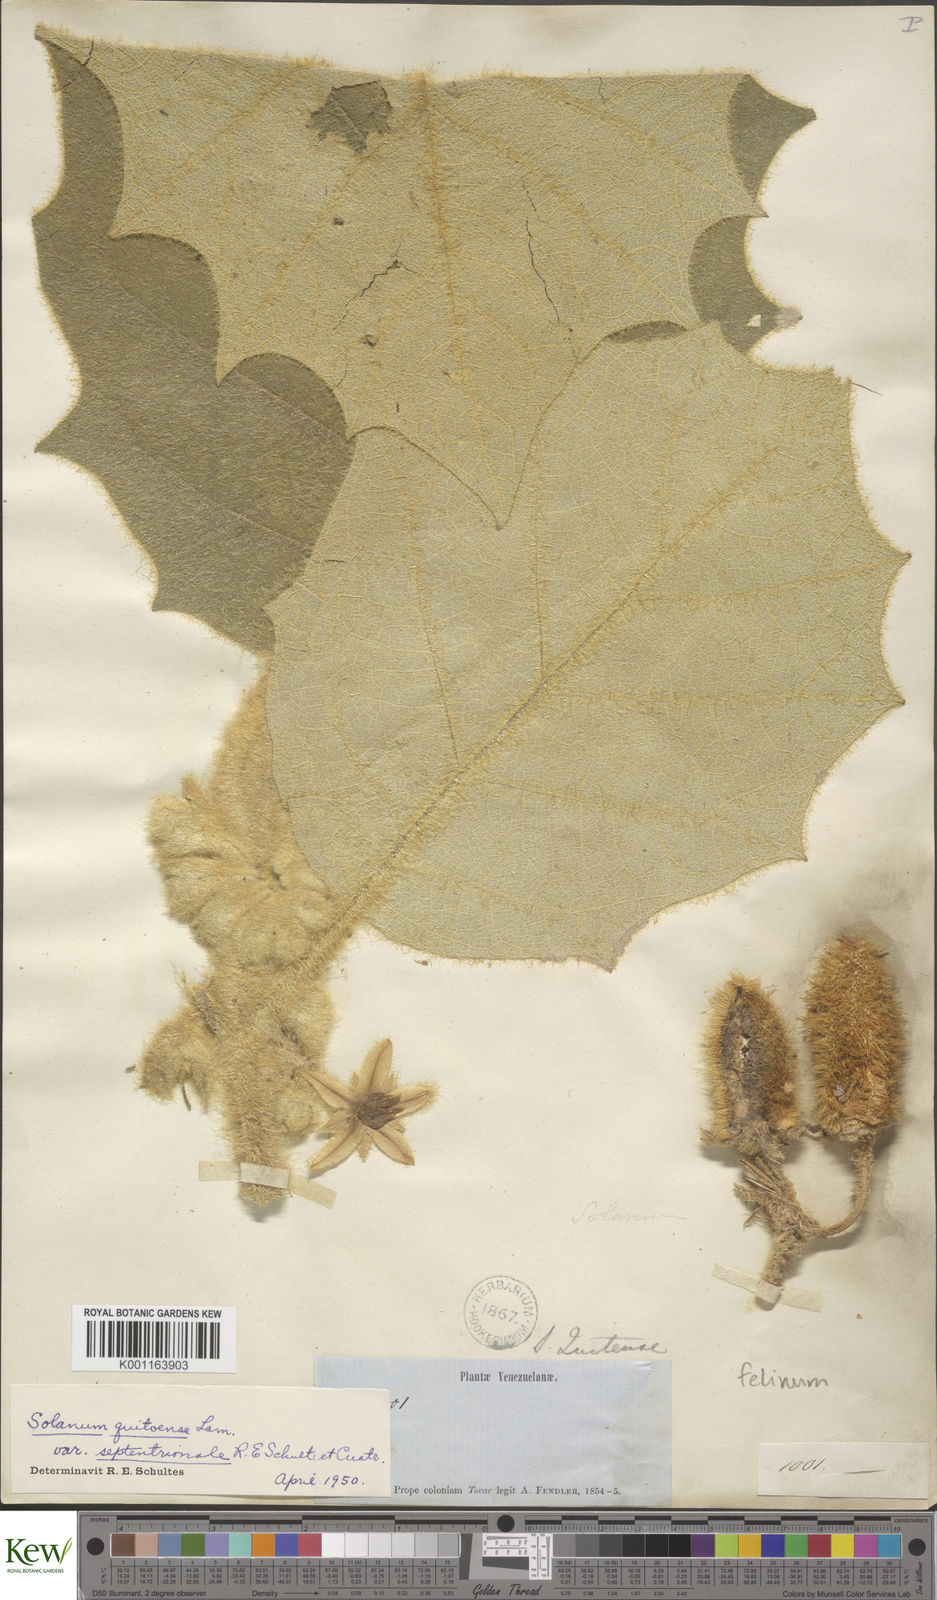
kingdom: Plantae
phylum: Tracheophyta
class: Magnoliopsida
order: Solanales
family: Solanaceae
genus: Solanum
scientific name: Solanum felinum
